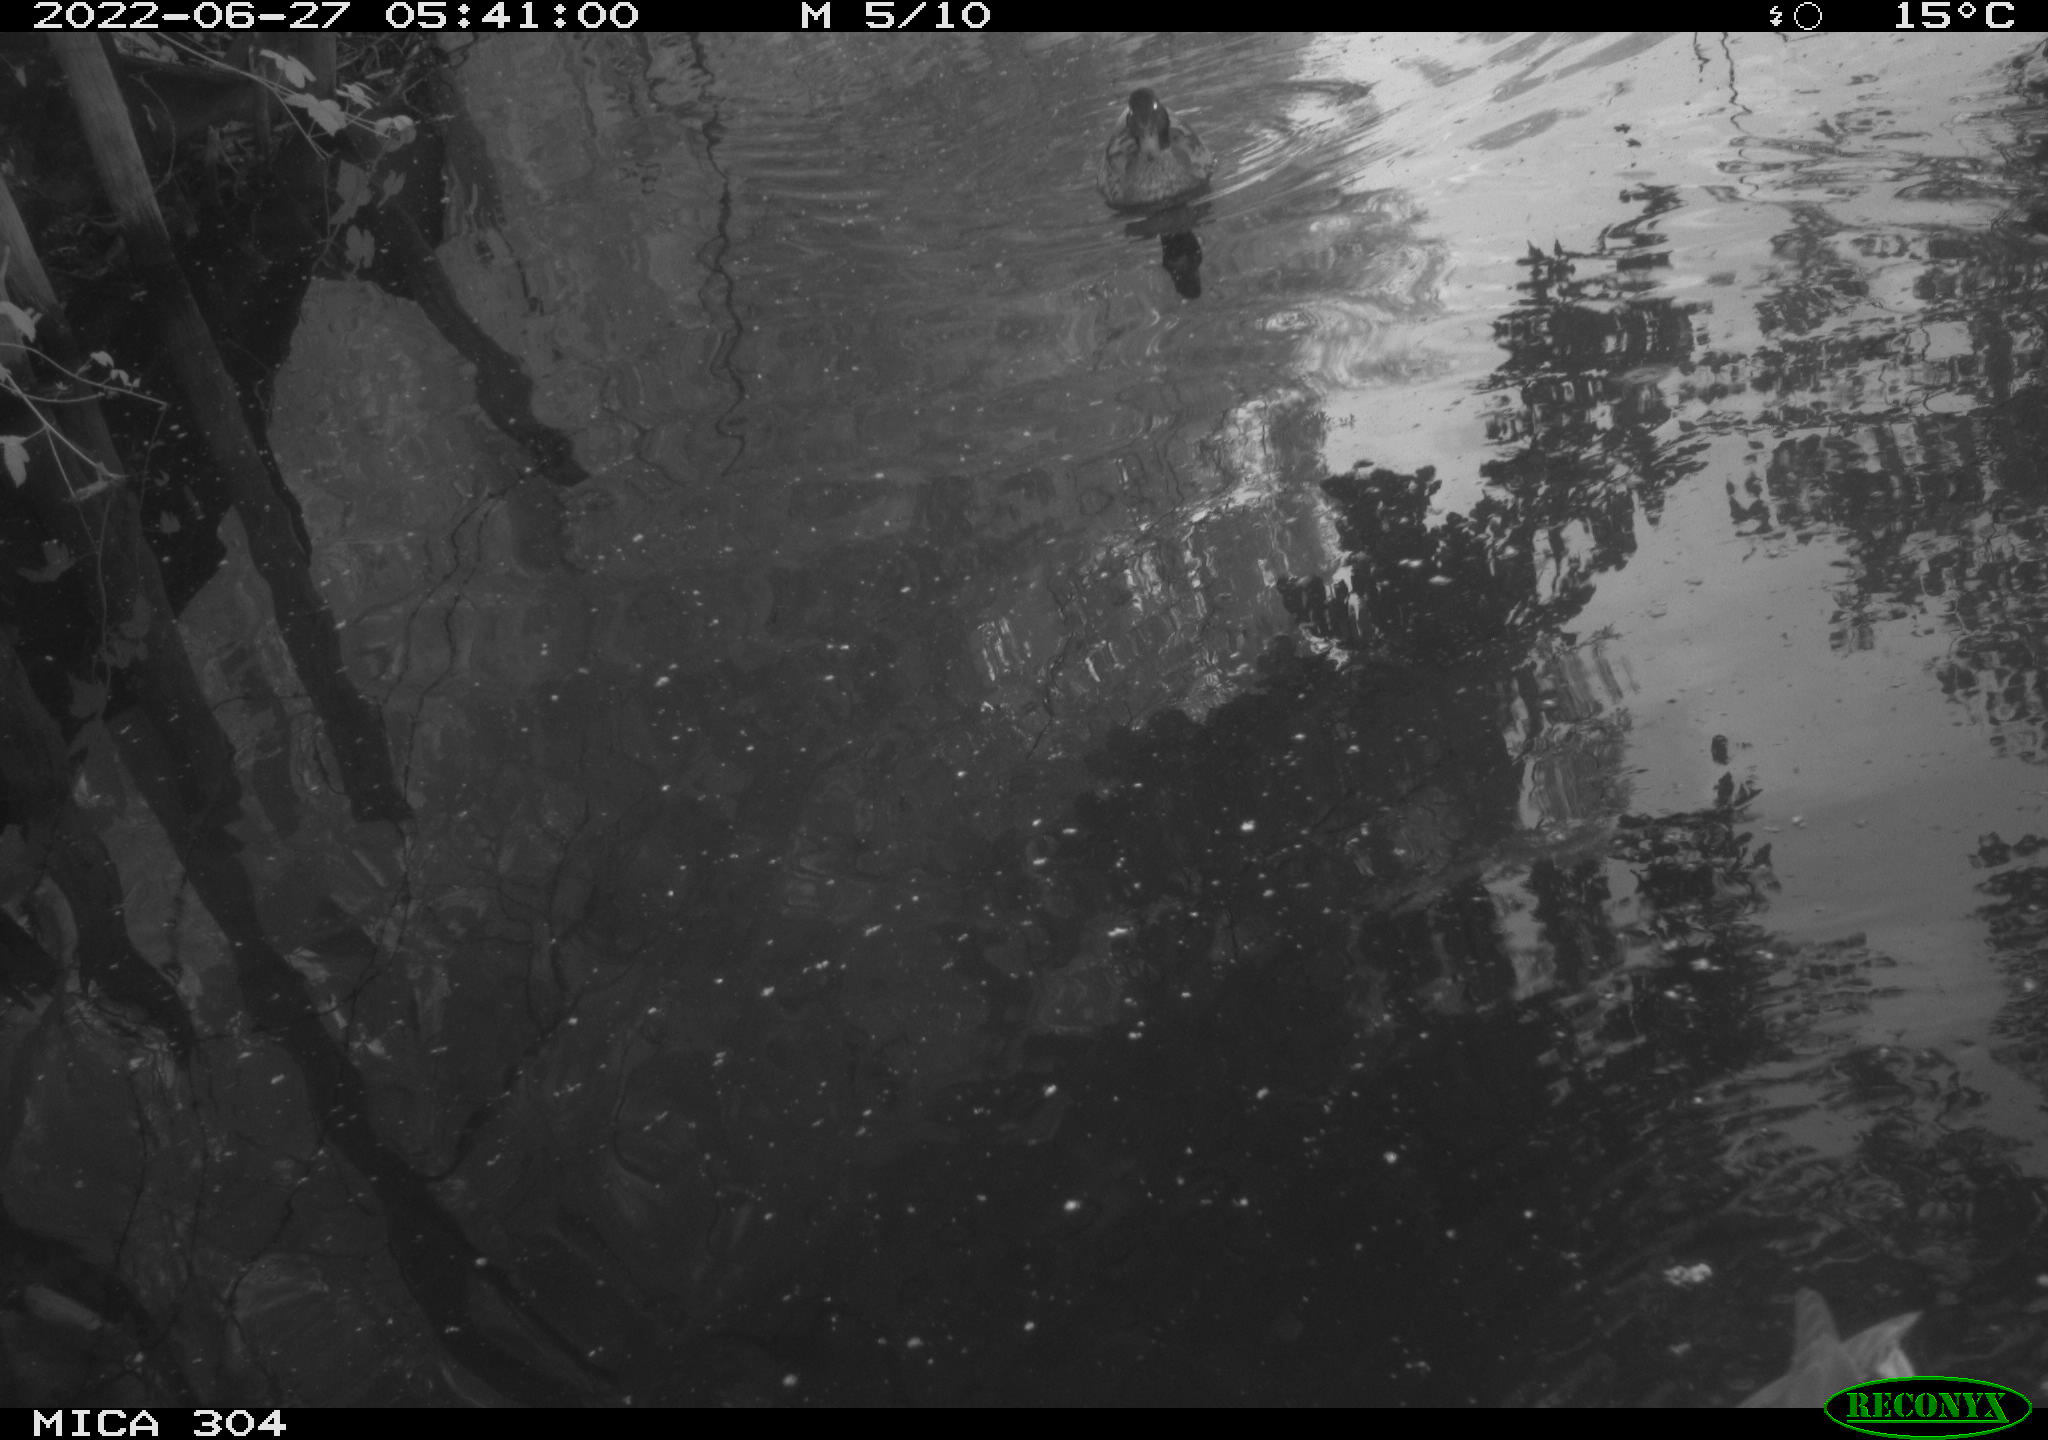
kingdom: Animalia
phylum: Chordata
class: Aves
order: Anseriformes
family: Anatidae
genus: Mareca
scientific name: Mareca strepera
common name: Gadwall
